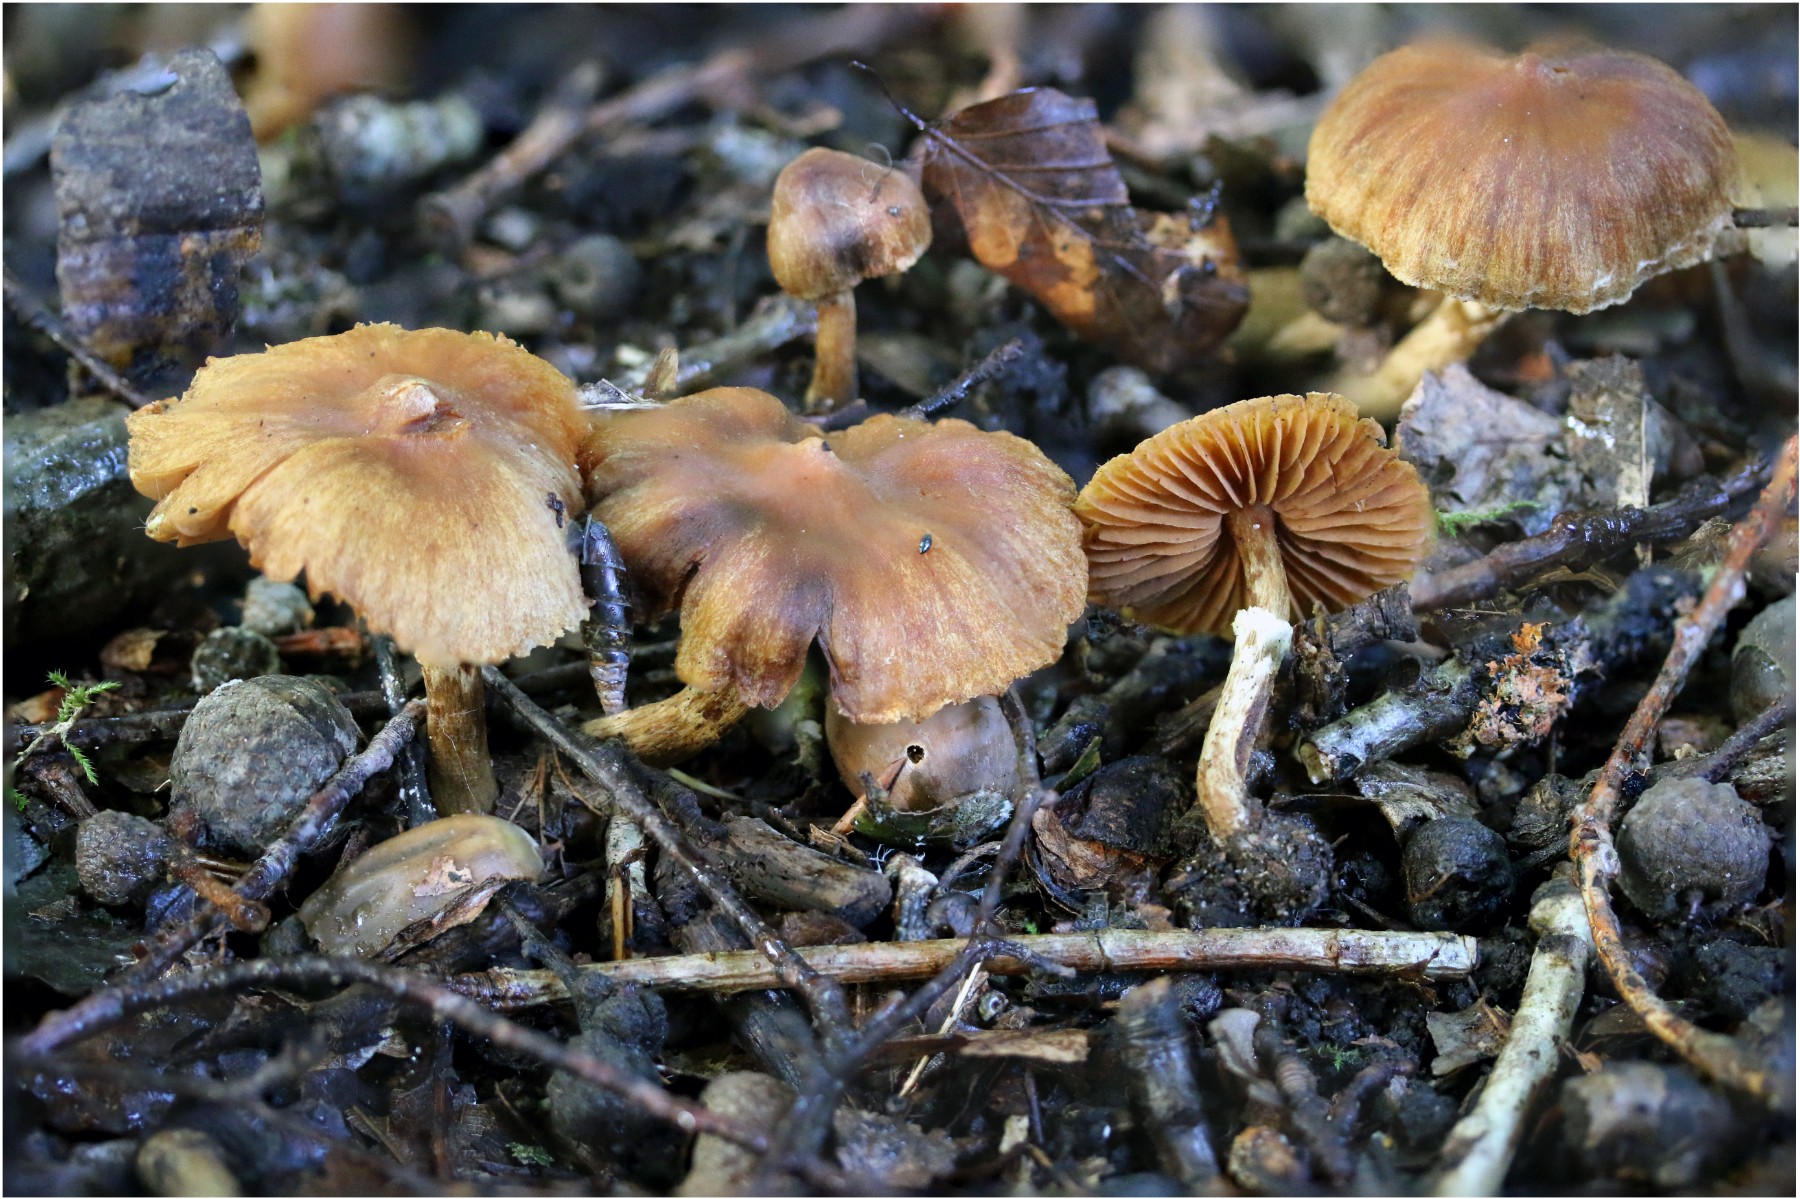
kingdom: Fungi
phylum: Basidiomycota
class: Agaricomycetes
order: Agaricales
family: Cortinariaceae
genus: Cortinarius
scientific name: Cortinarius hinnuleus
